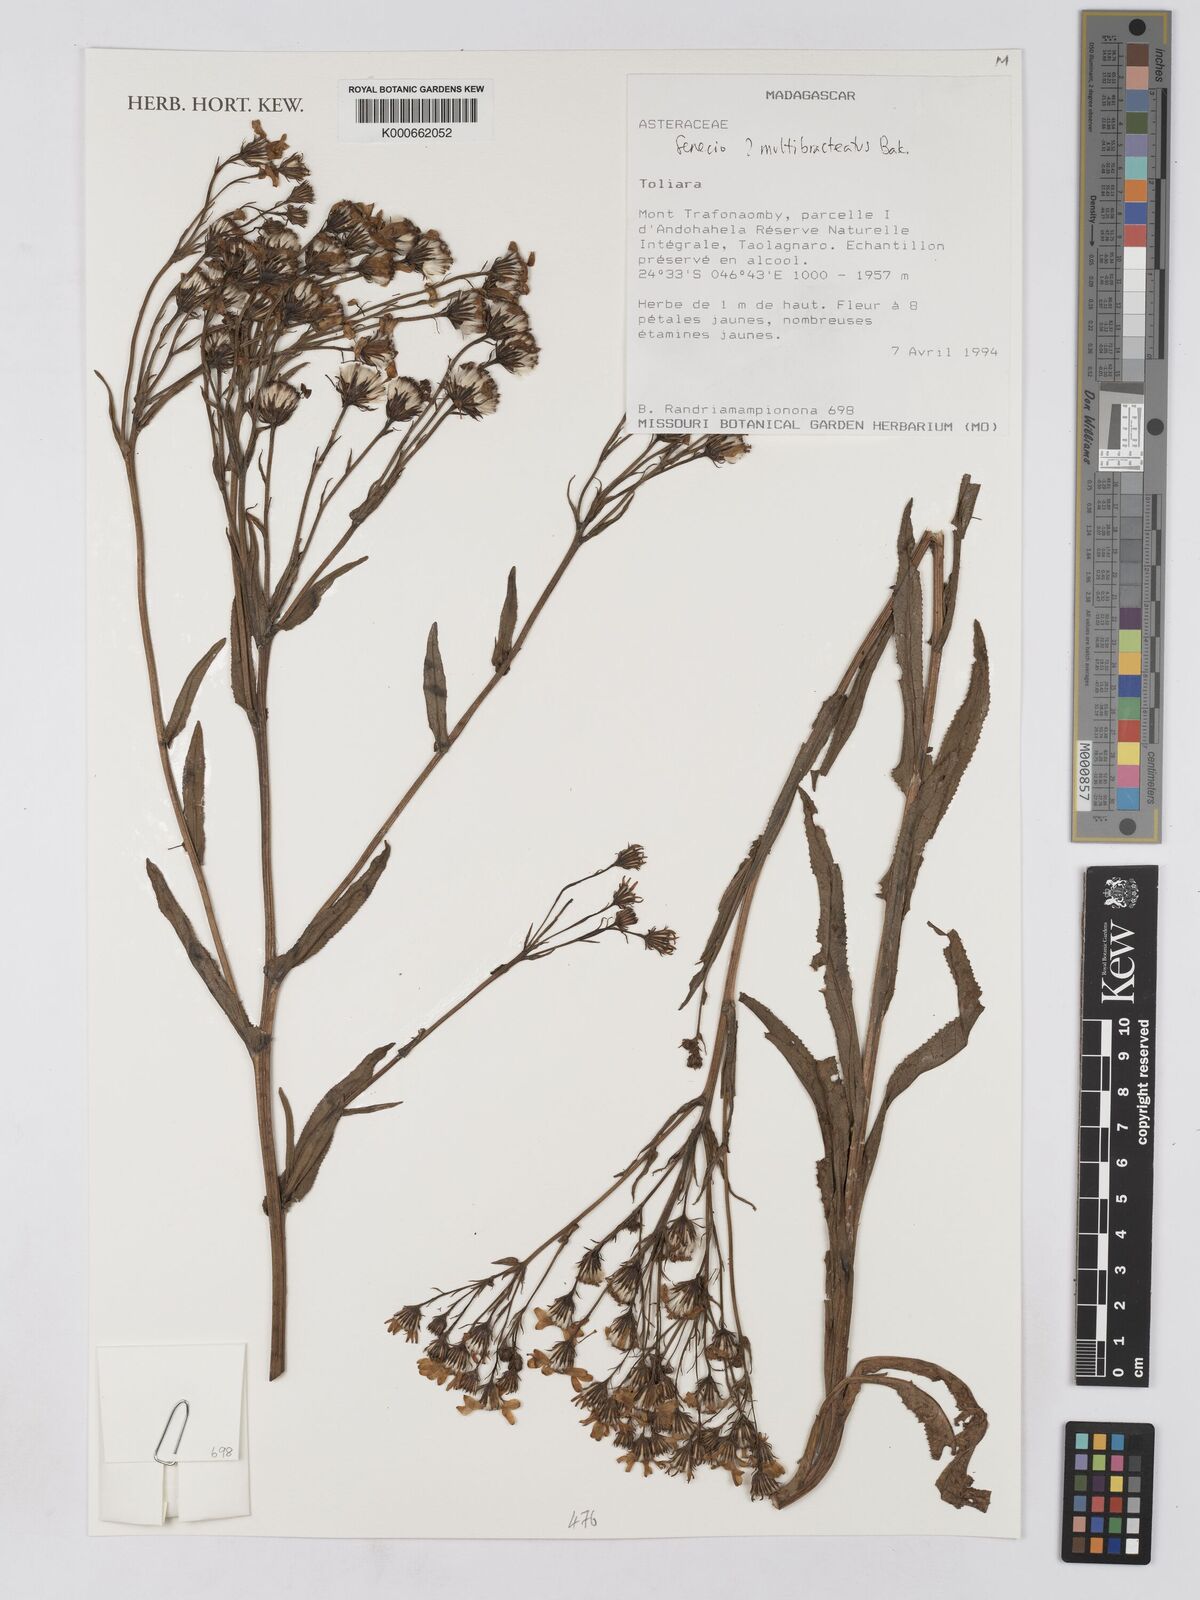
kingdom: Plantae
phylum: Tracheophyta
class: Magnoliopsida
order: Asterales
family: Asteraceae
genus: Senecio
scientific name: Senecio pleistophyllus
